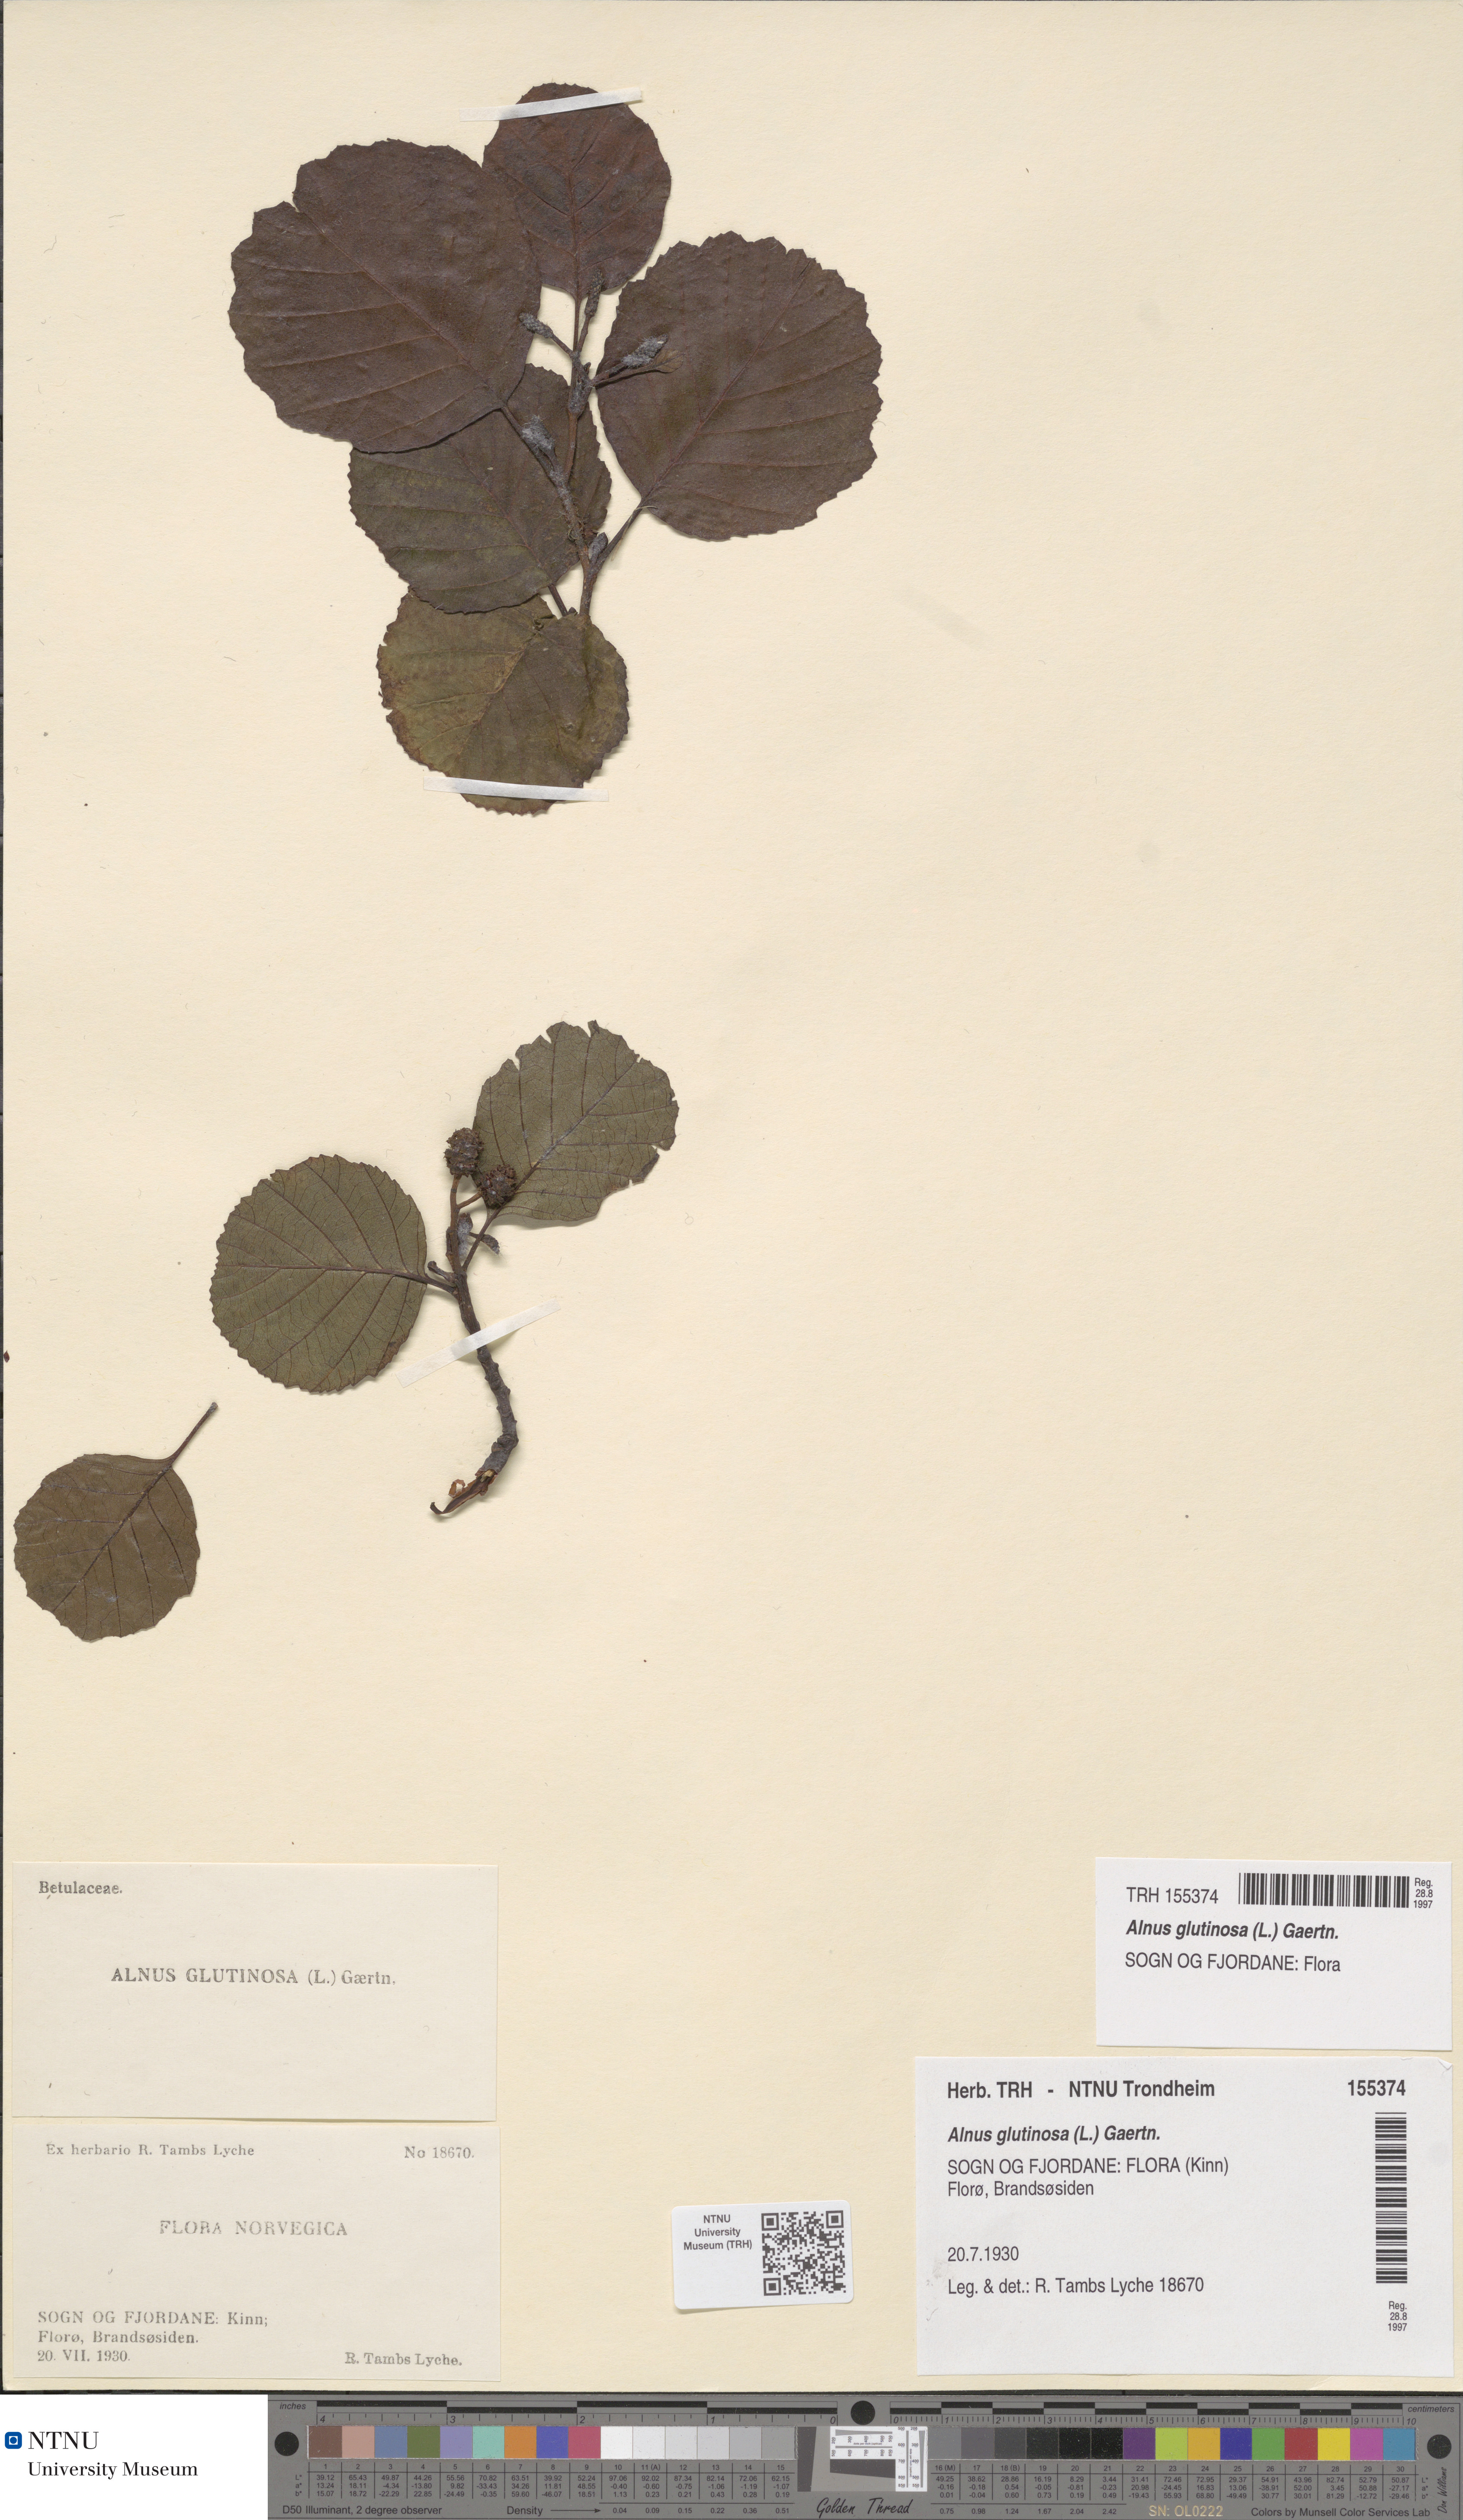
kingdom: Plantae
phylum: Tracheophyta
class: Magnoliopsida
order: Fagales
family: Betulaceae
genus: Alnus
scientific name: Alnus glutinosa
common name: Black alder
